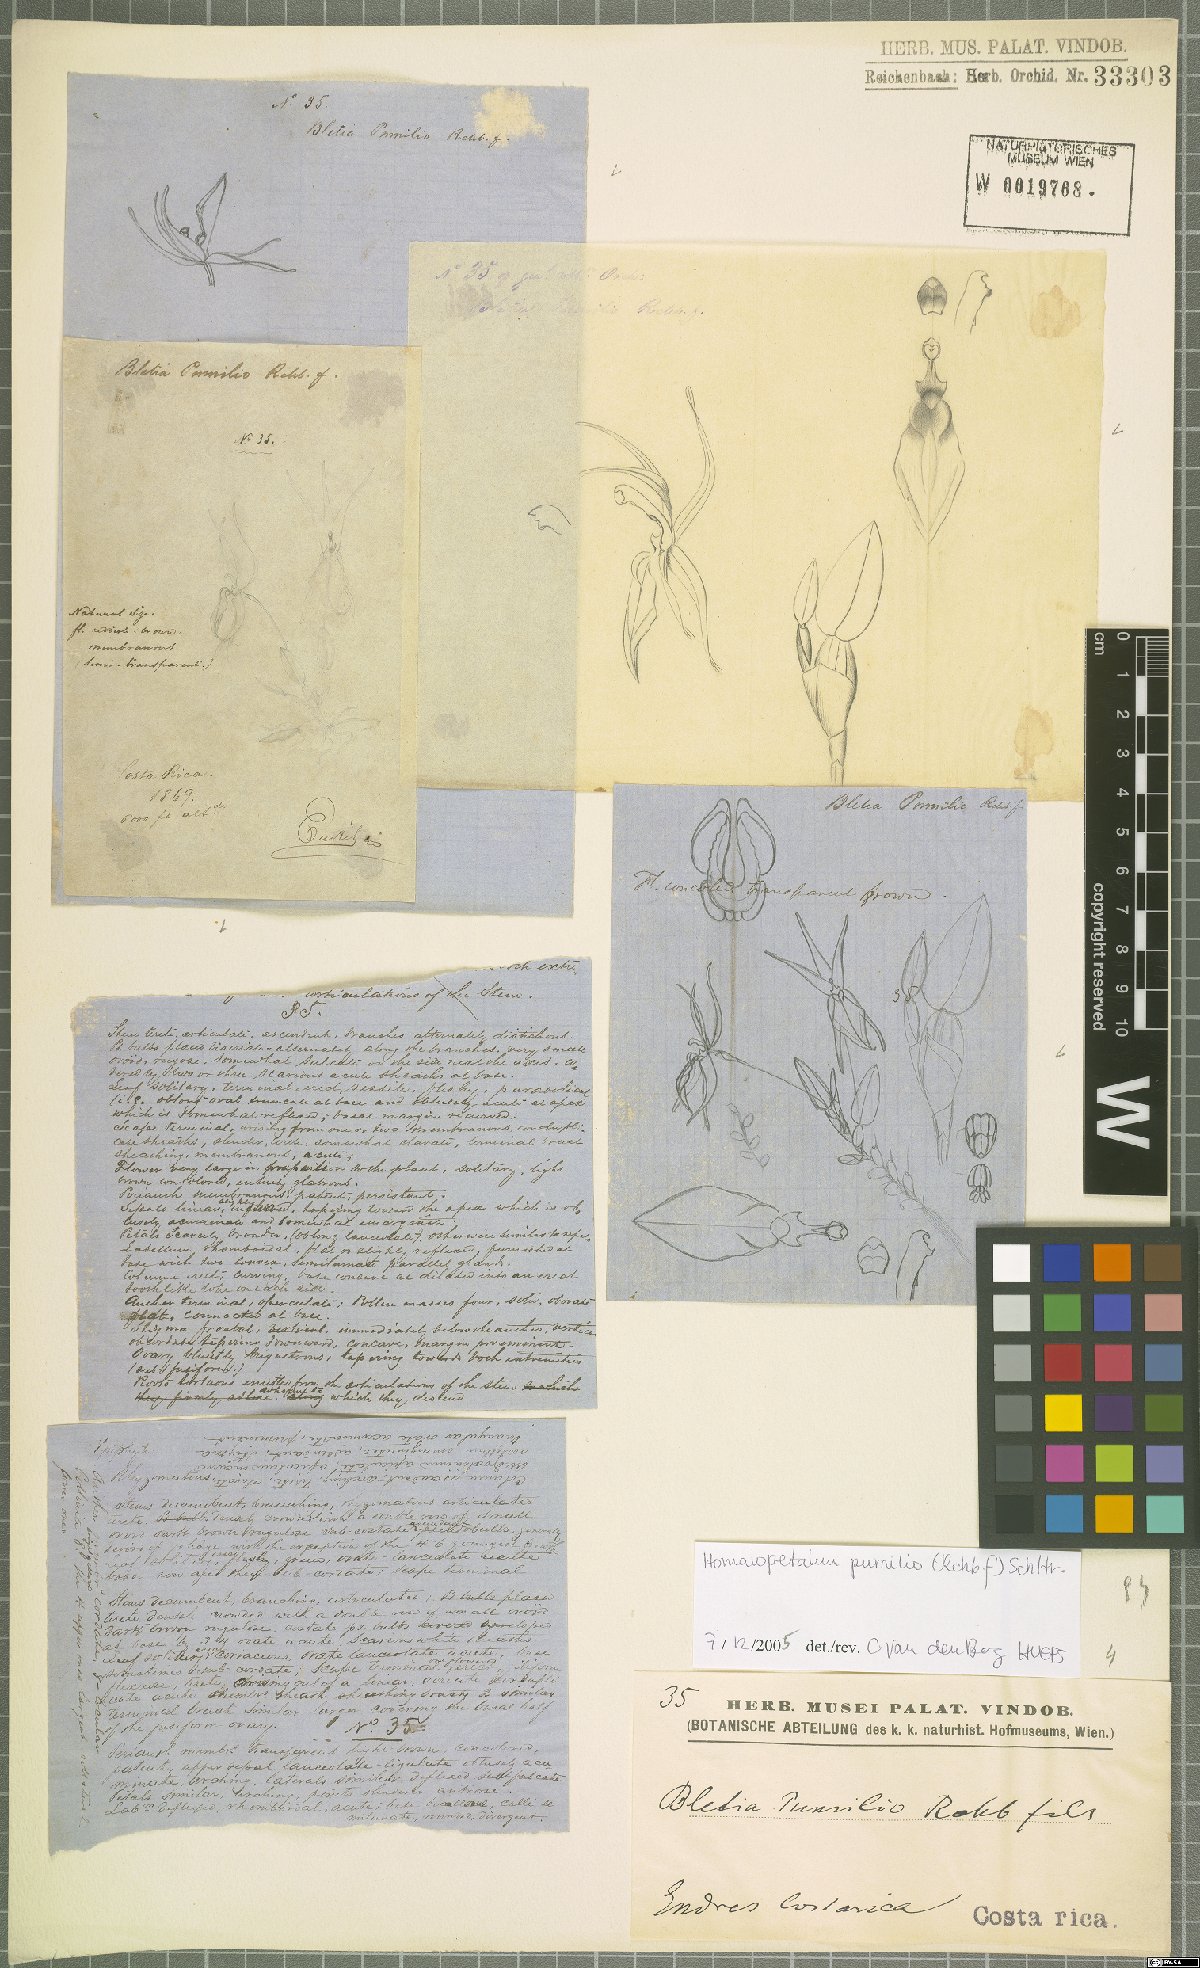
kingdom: Plantae
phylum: Tracheophyta
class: Liliopsida
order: Asparagales
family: Orchidaceae
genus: Homalopetalum
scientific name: Homalopetalum pumilio
